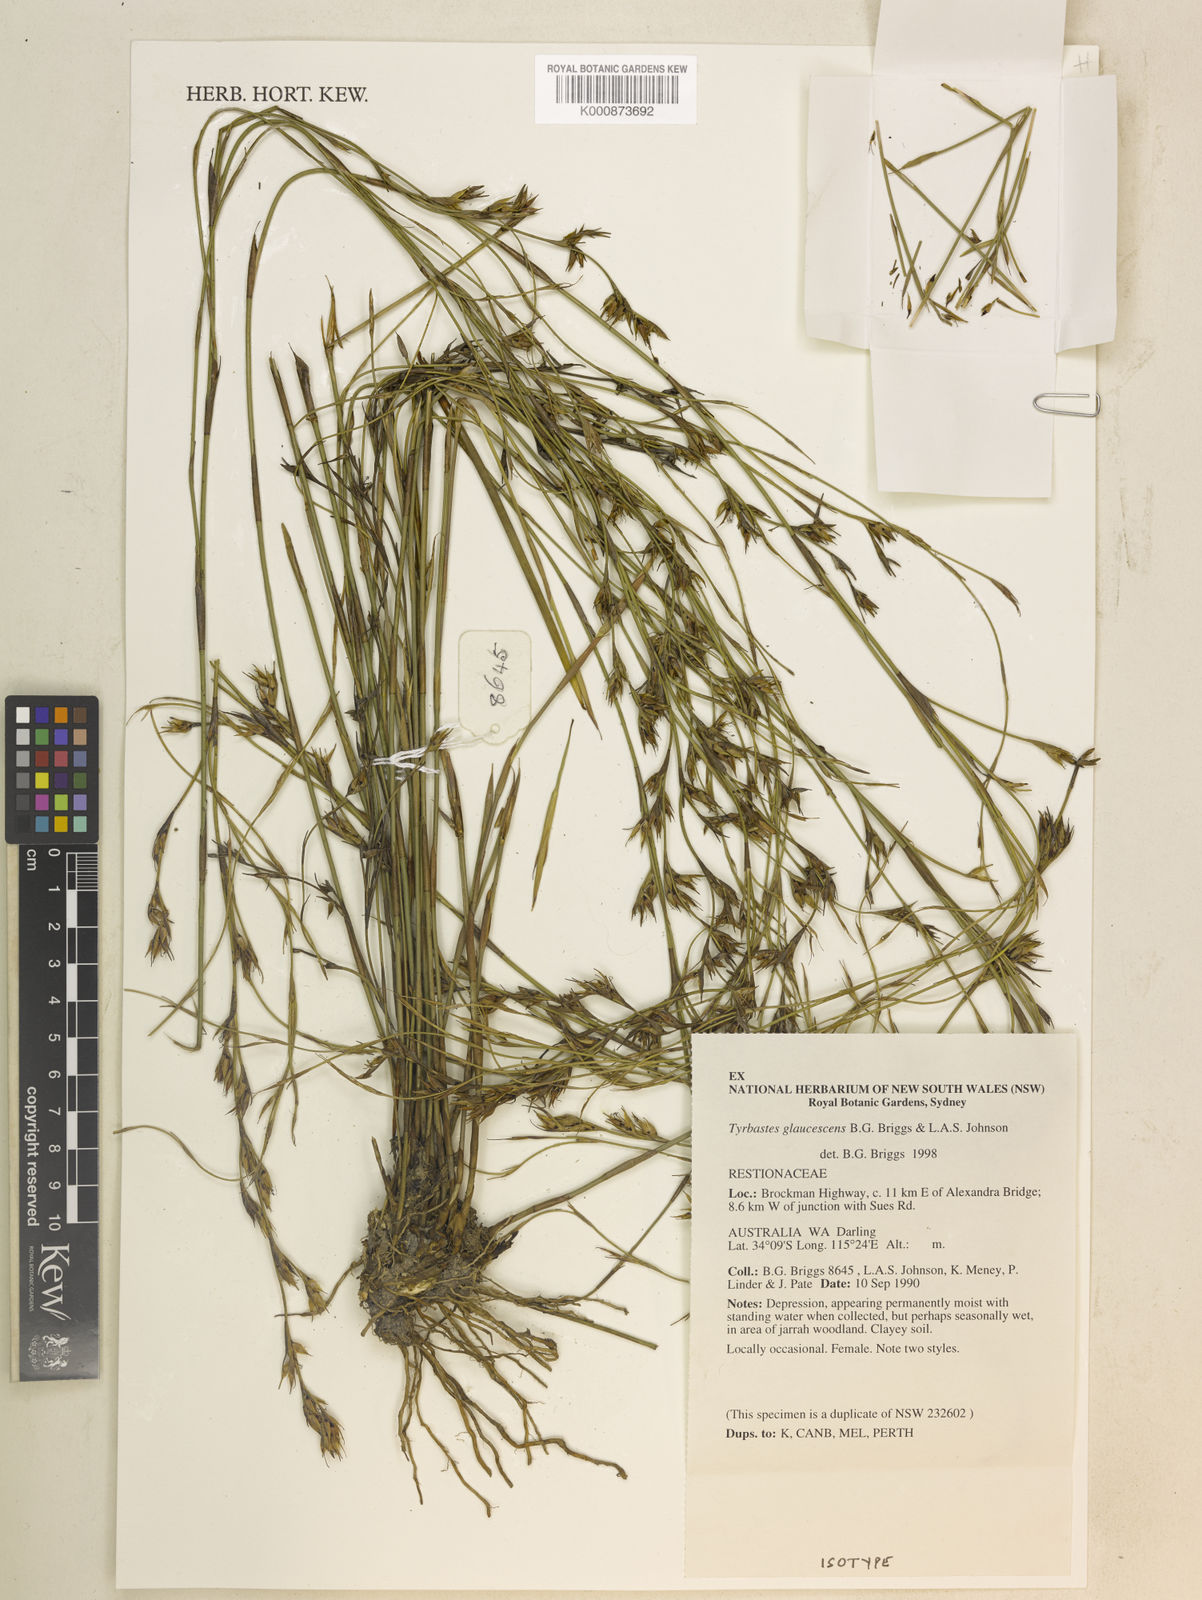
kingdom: Plantae
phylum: Tracheophyta
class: Liliopsida
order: Poales
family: Restionaceae
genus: Tyrbastes
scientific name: Tyrbastes glaucescens
